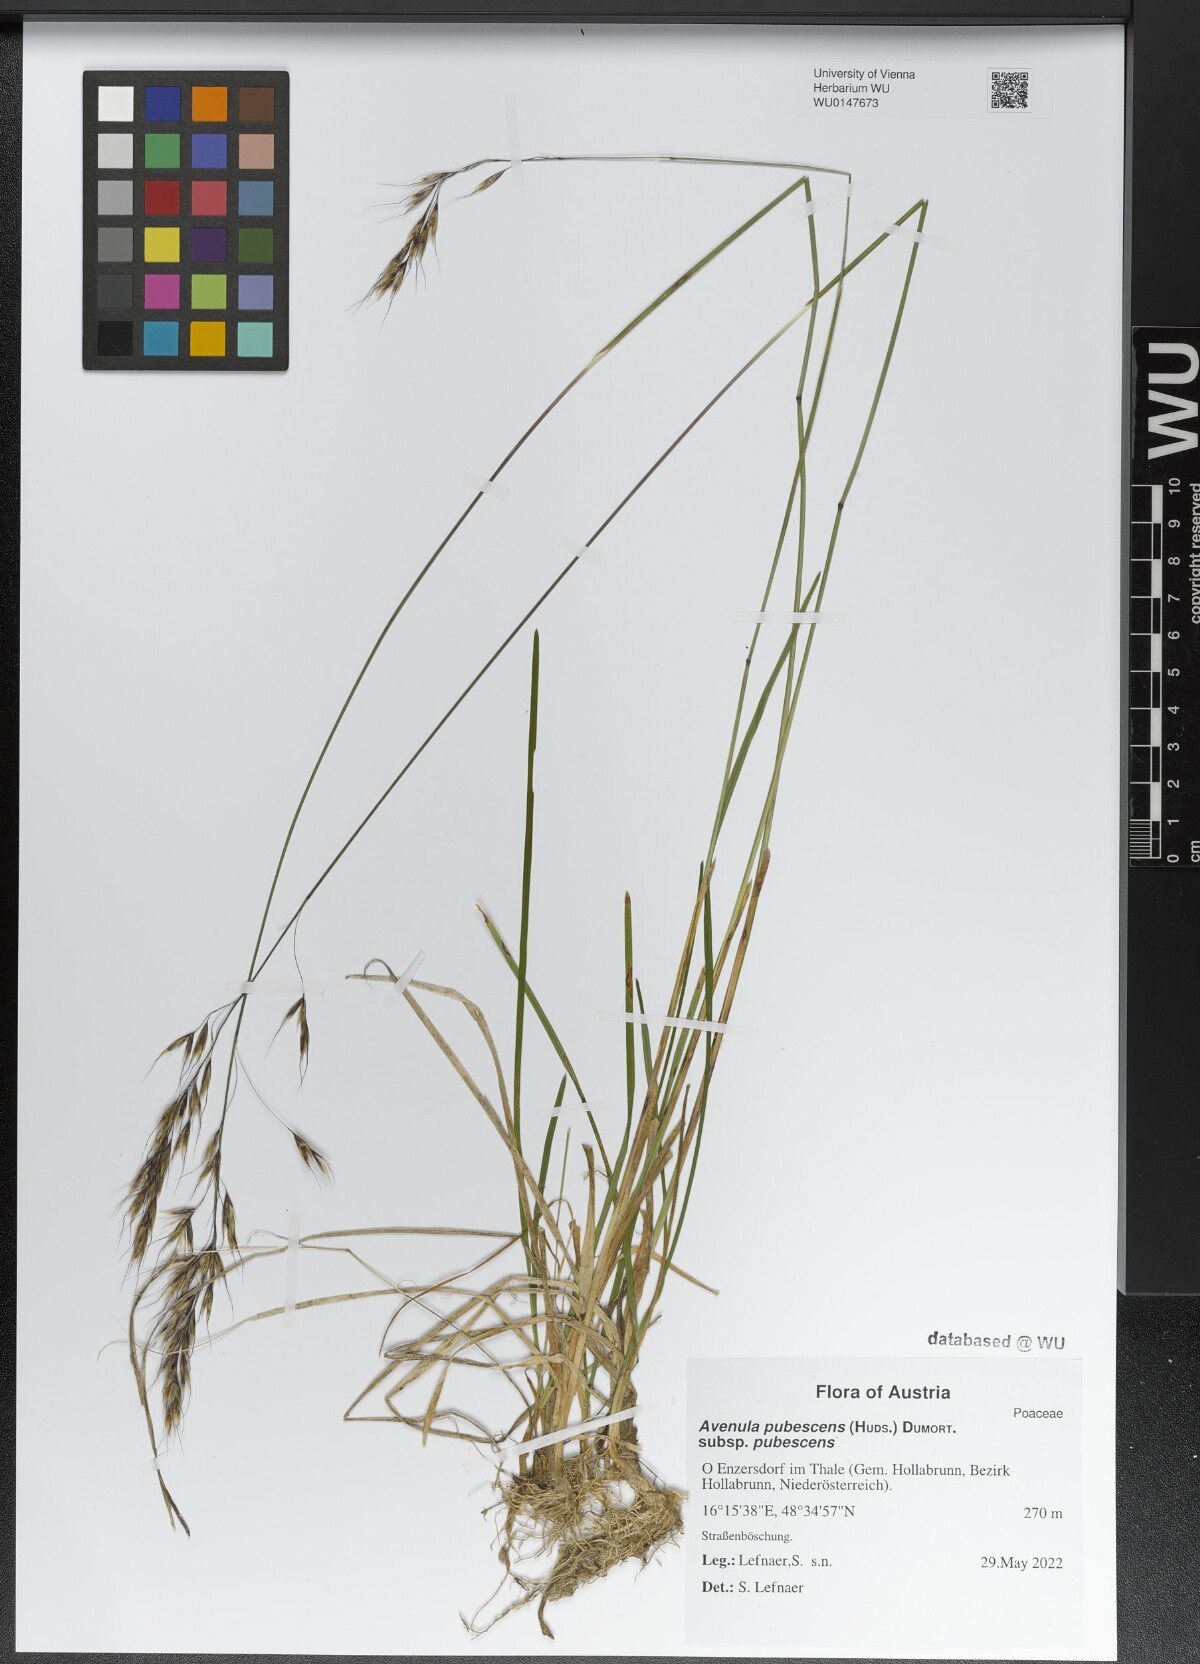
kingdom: Plantae
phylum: Tracheophyta
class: Liliopsida
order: Poales
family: Poaceae
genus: Avenula
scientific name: Avenula pubescens
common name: Downy alpine oatgrass
